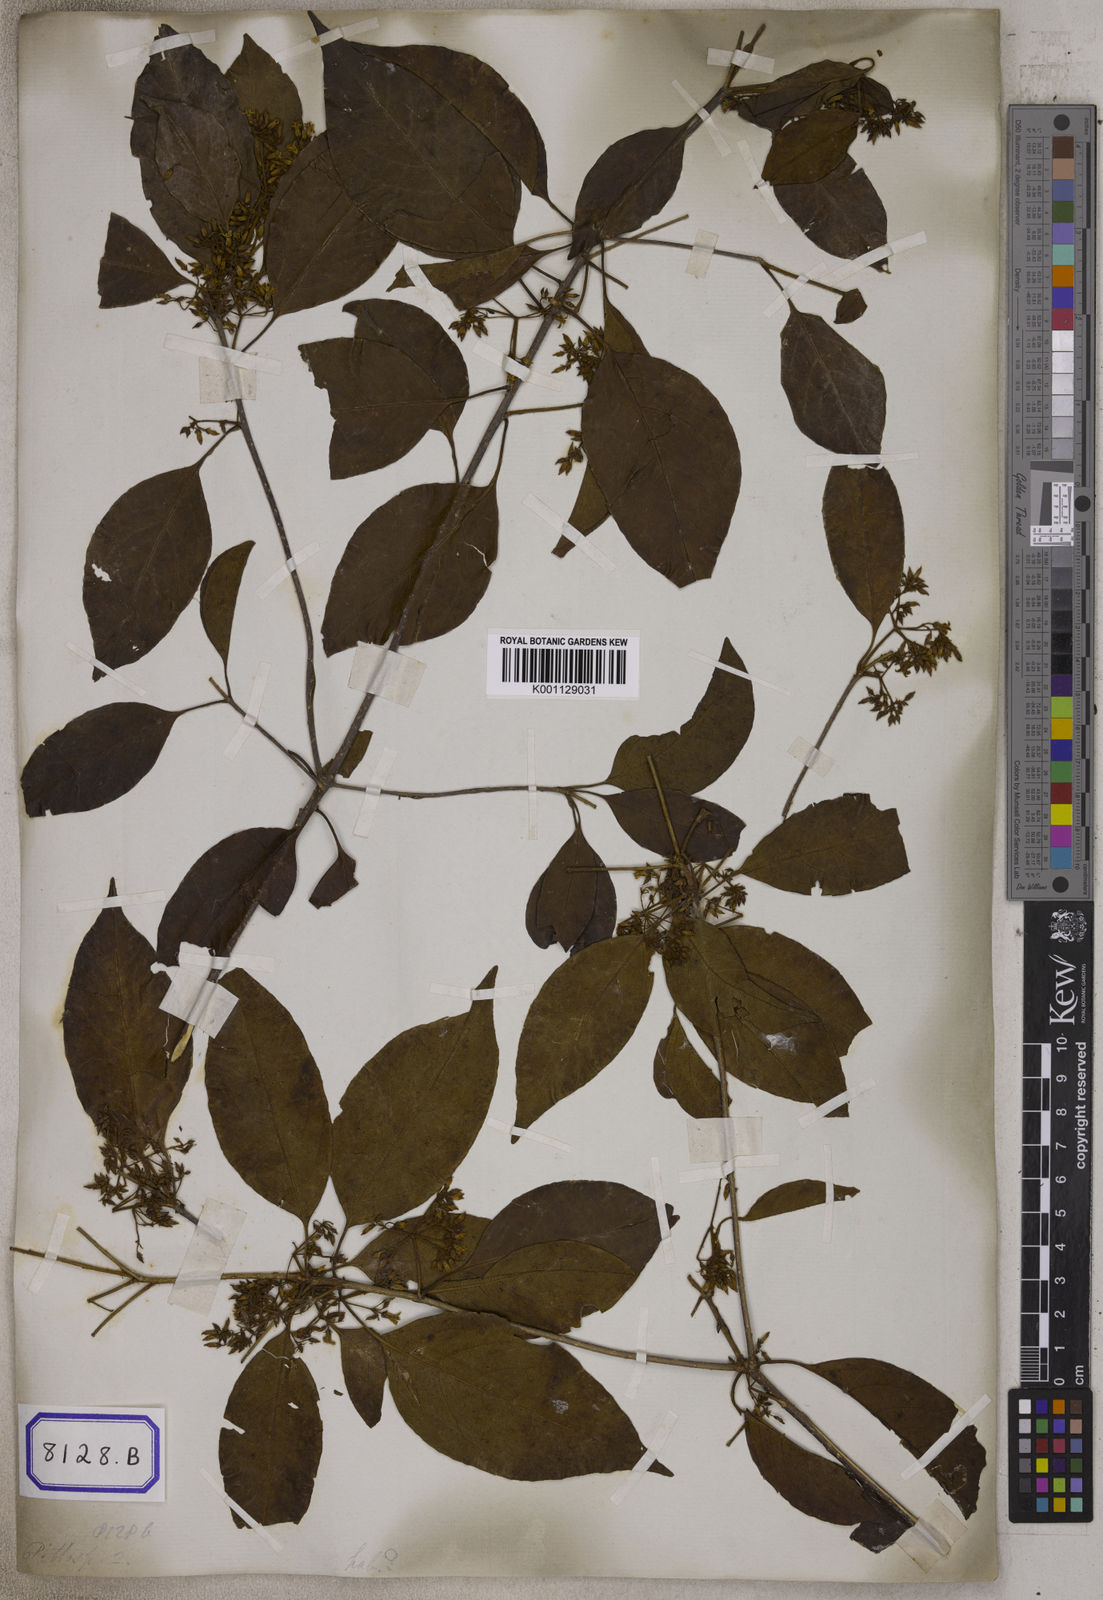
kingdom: Plantae
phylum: Tracheophyta
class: Magnoliopsida
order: Apiales
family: Pittosporaceae
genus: Pittosporum
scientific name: Pittosporum ferrugineum
